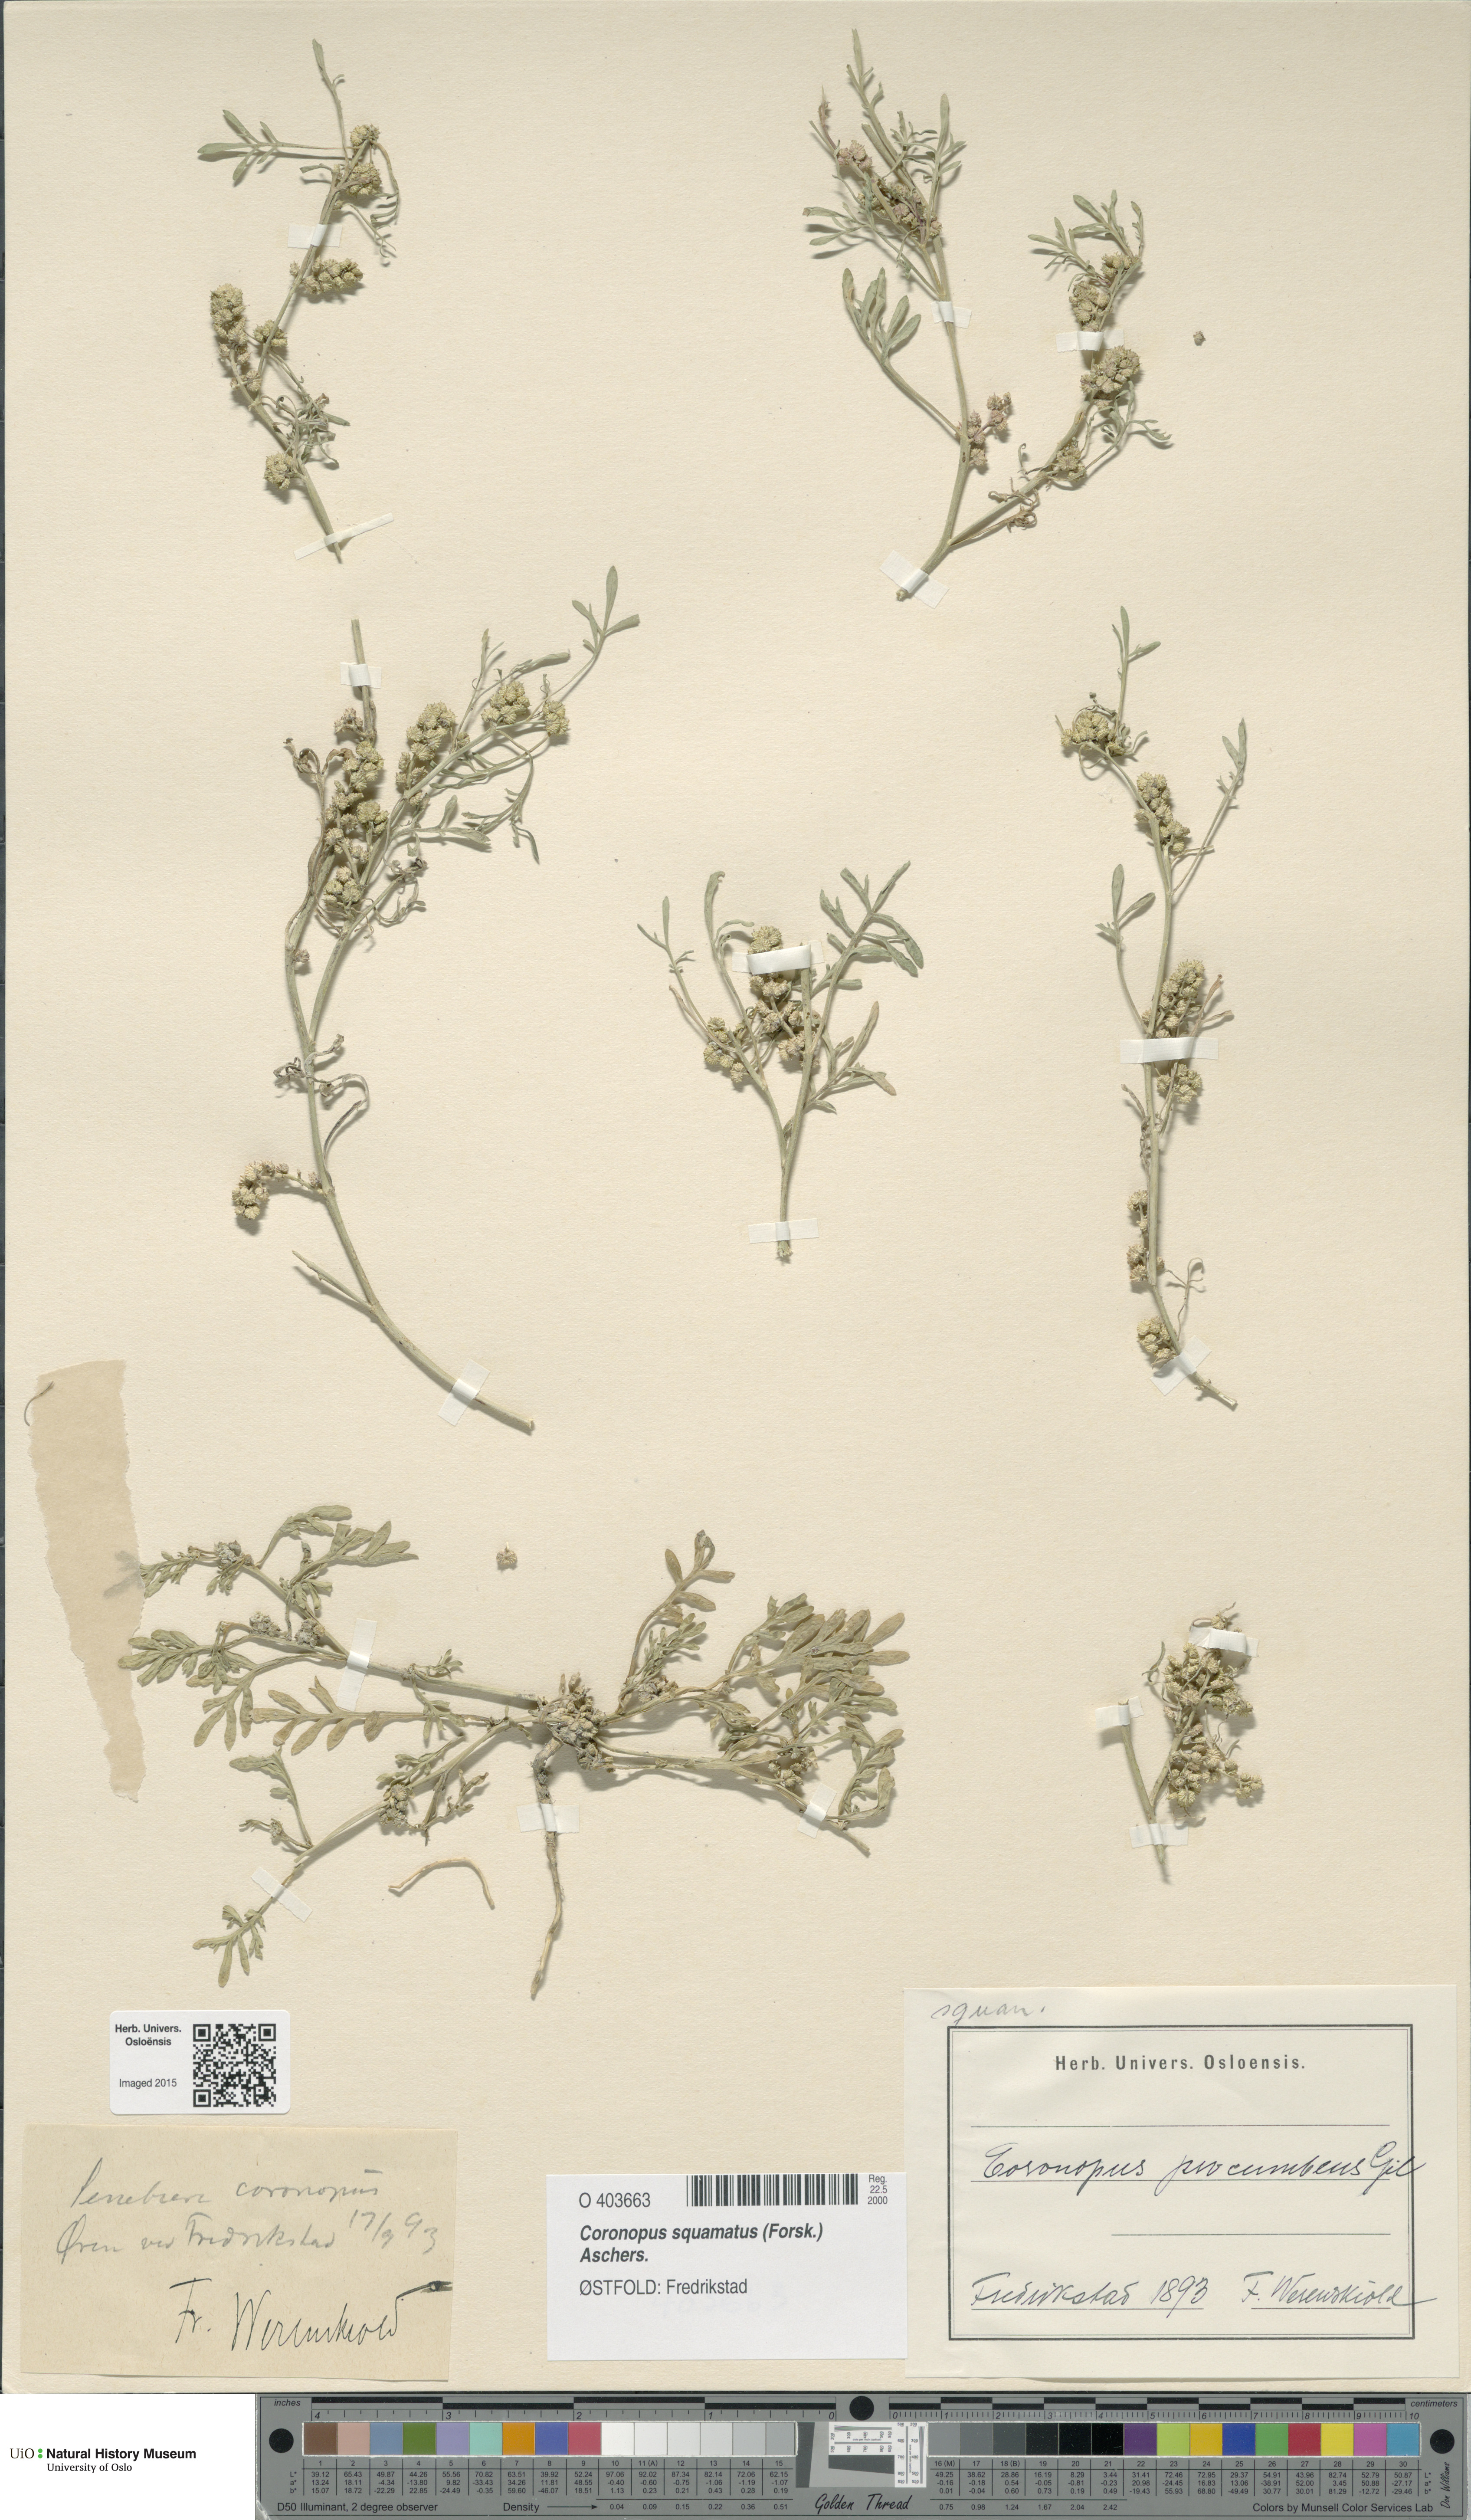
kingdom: Plantae
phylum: Tracheophyta
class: Magnoliopsida
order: Brassicales
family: Brassicaceae
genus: Lepidium
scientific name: Lepidium coronopus
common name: Greater swinecress
